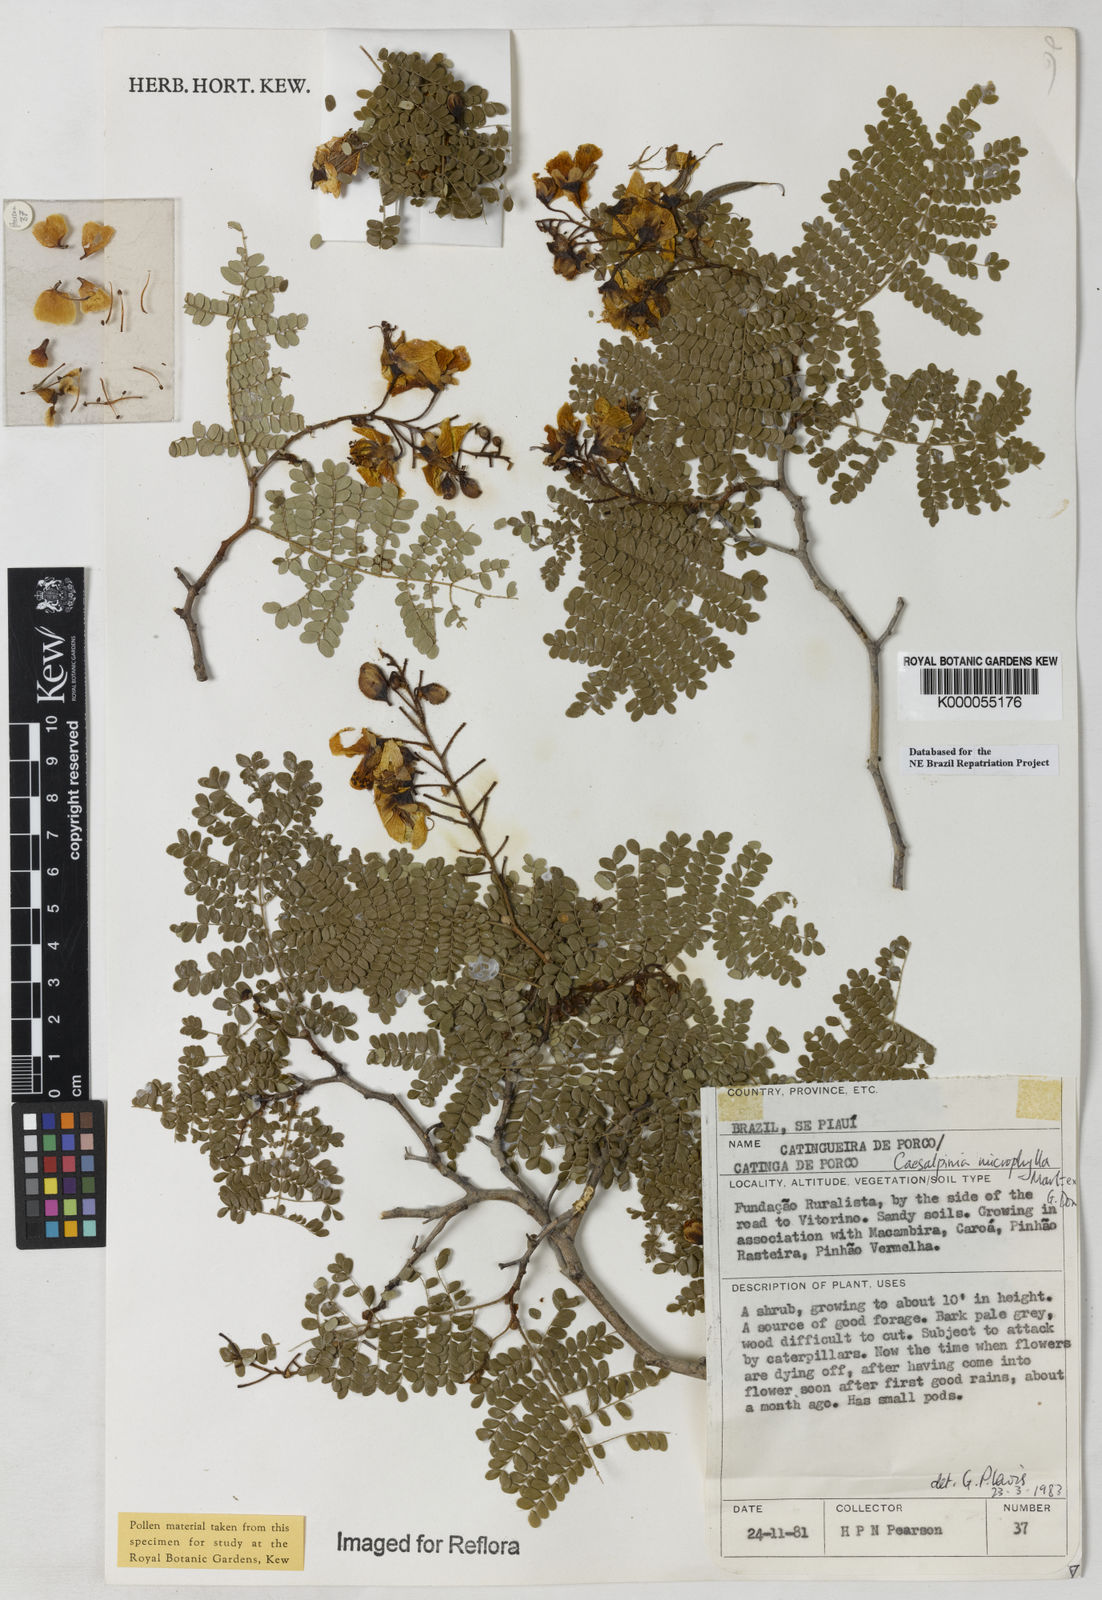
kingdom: Plantae
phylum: Tracheophyta
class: Magnoliopsida
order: Fabales
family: Fabaceae
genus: Cenostigma
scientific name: Cenostigma microphyllum
